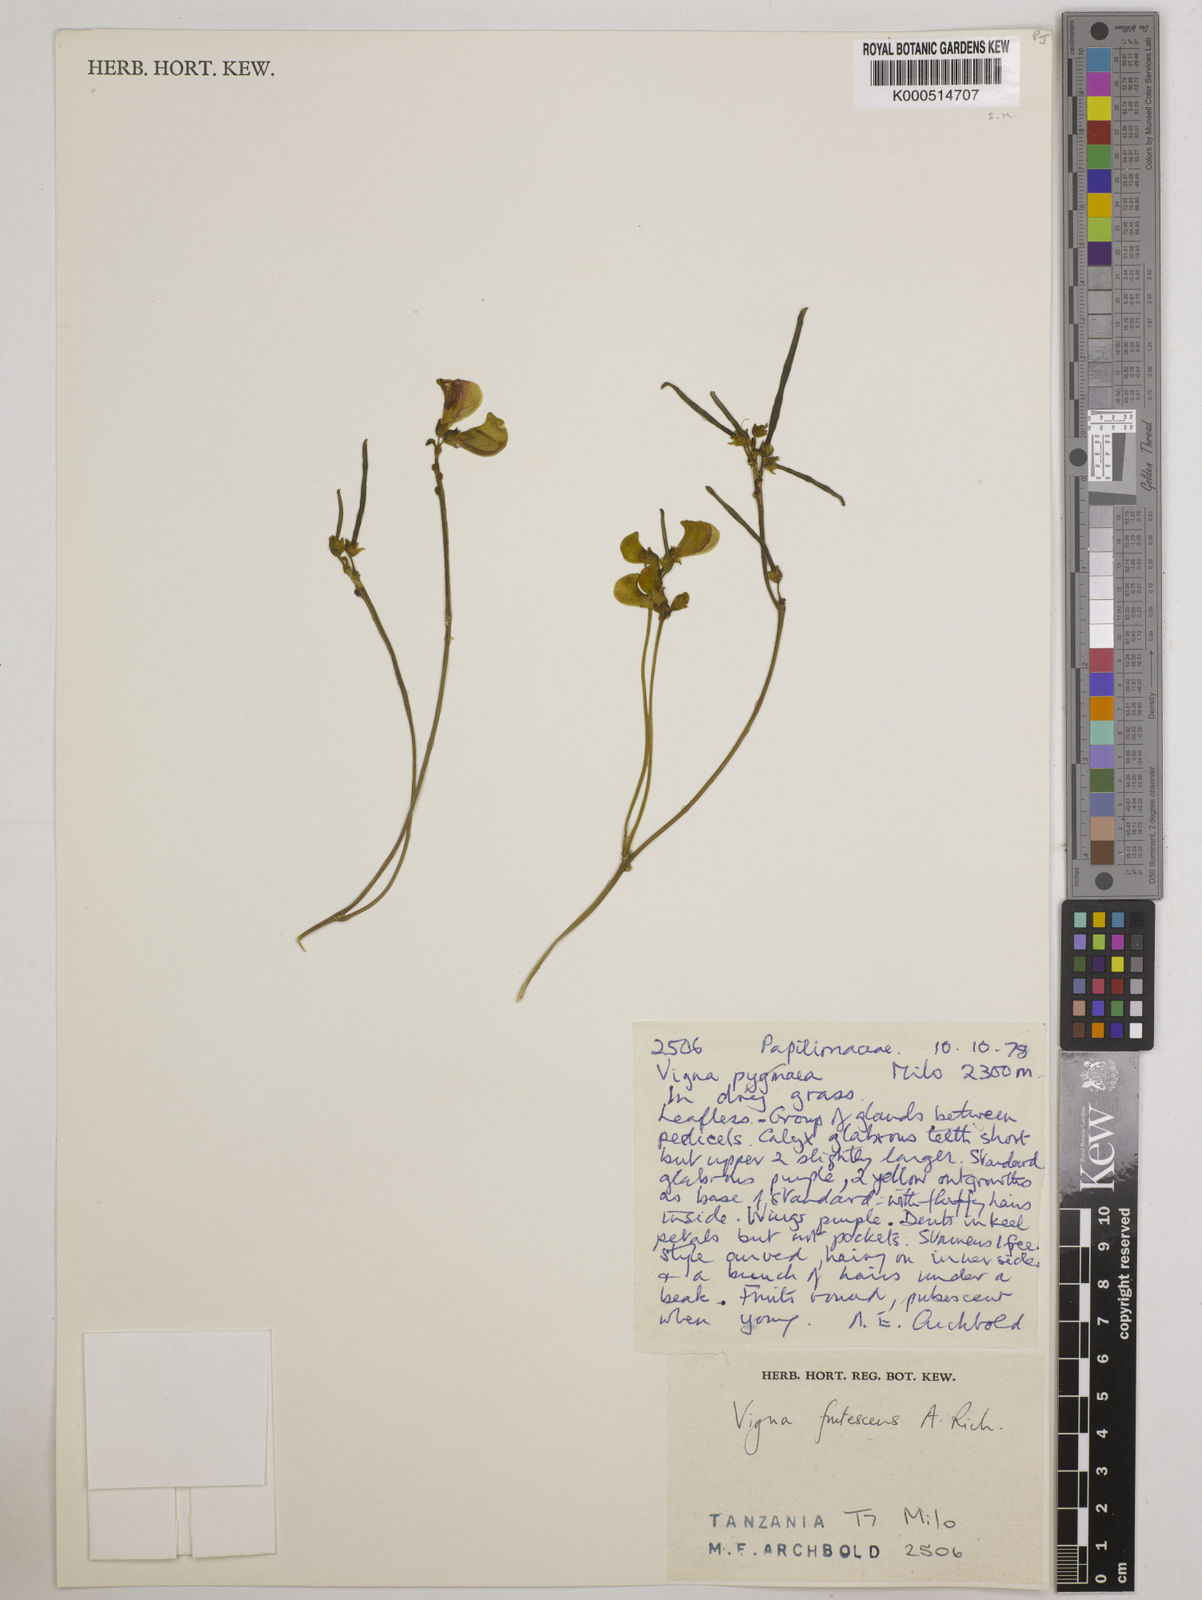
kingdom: Plantae
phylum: Tracheophyta
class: Magnoliopsida
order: Fabales
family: Fabaceae
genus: Vigna
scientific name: Vigna frutescens
